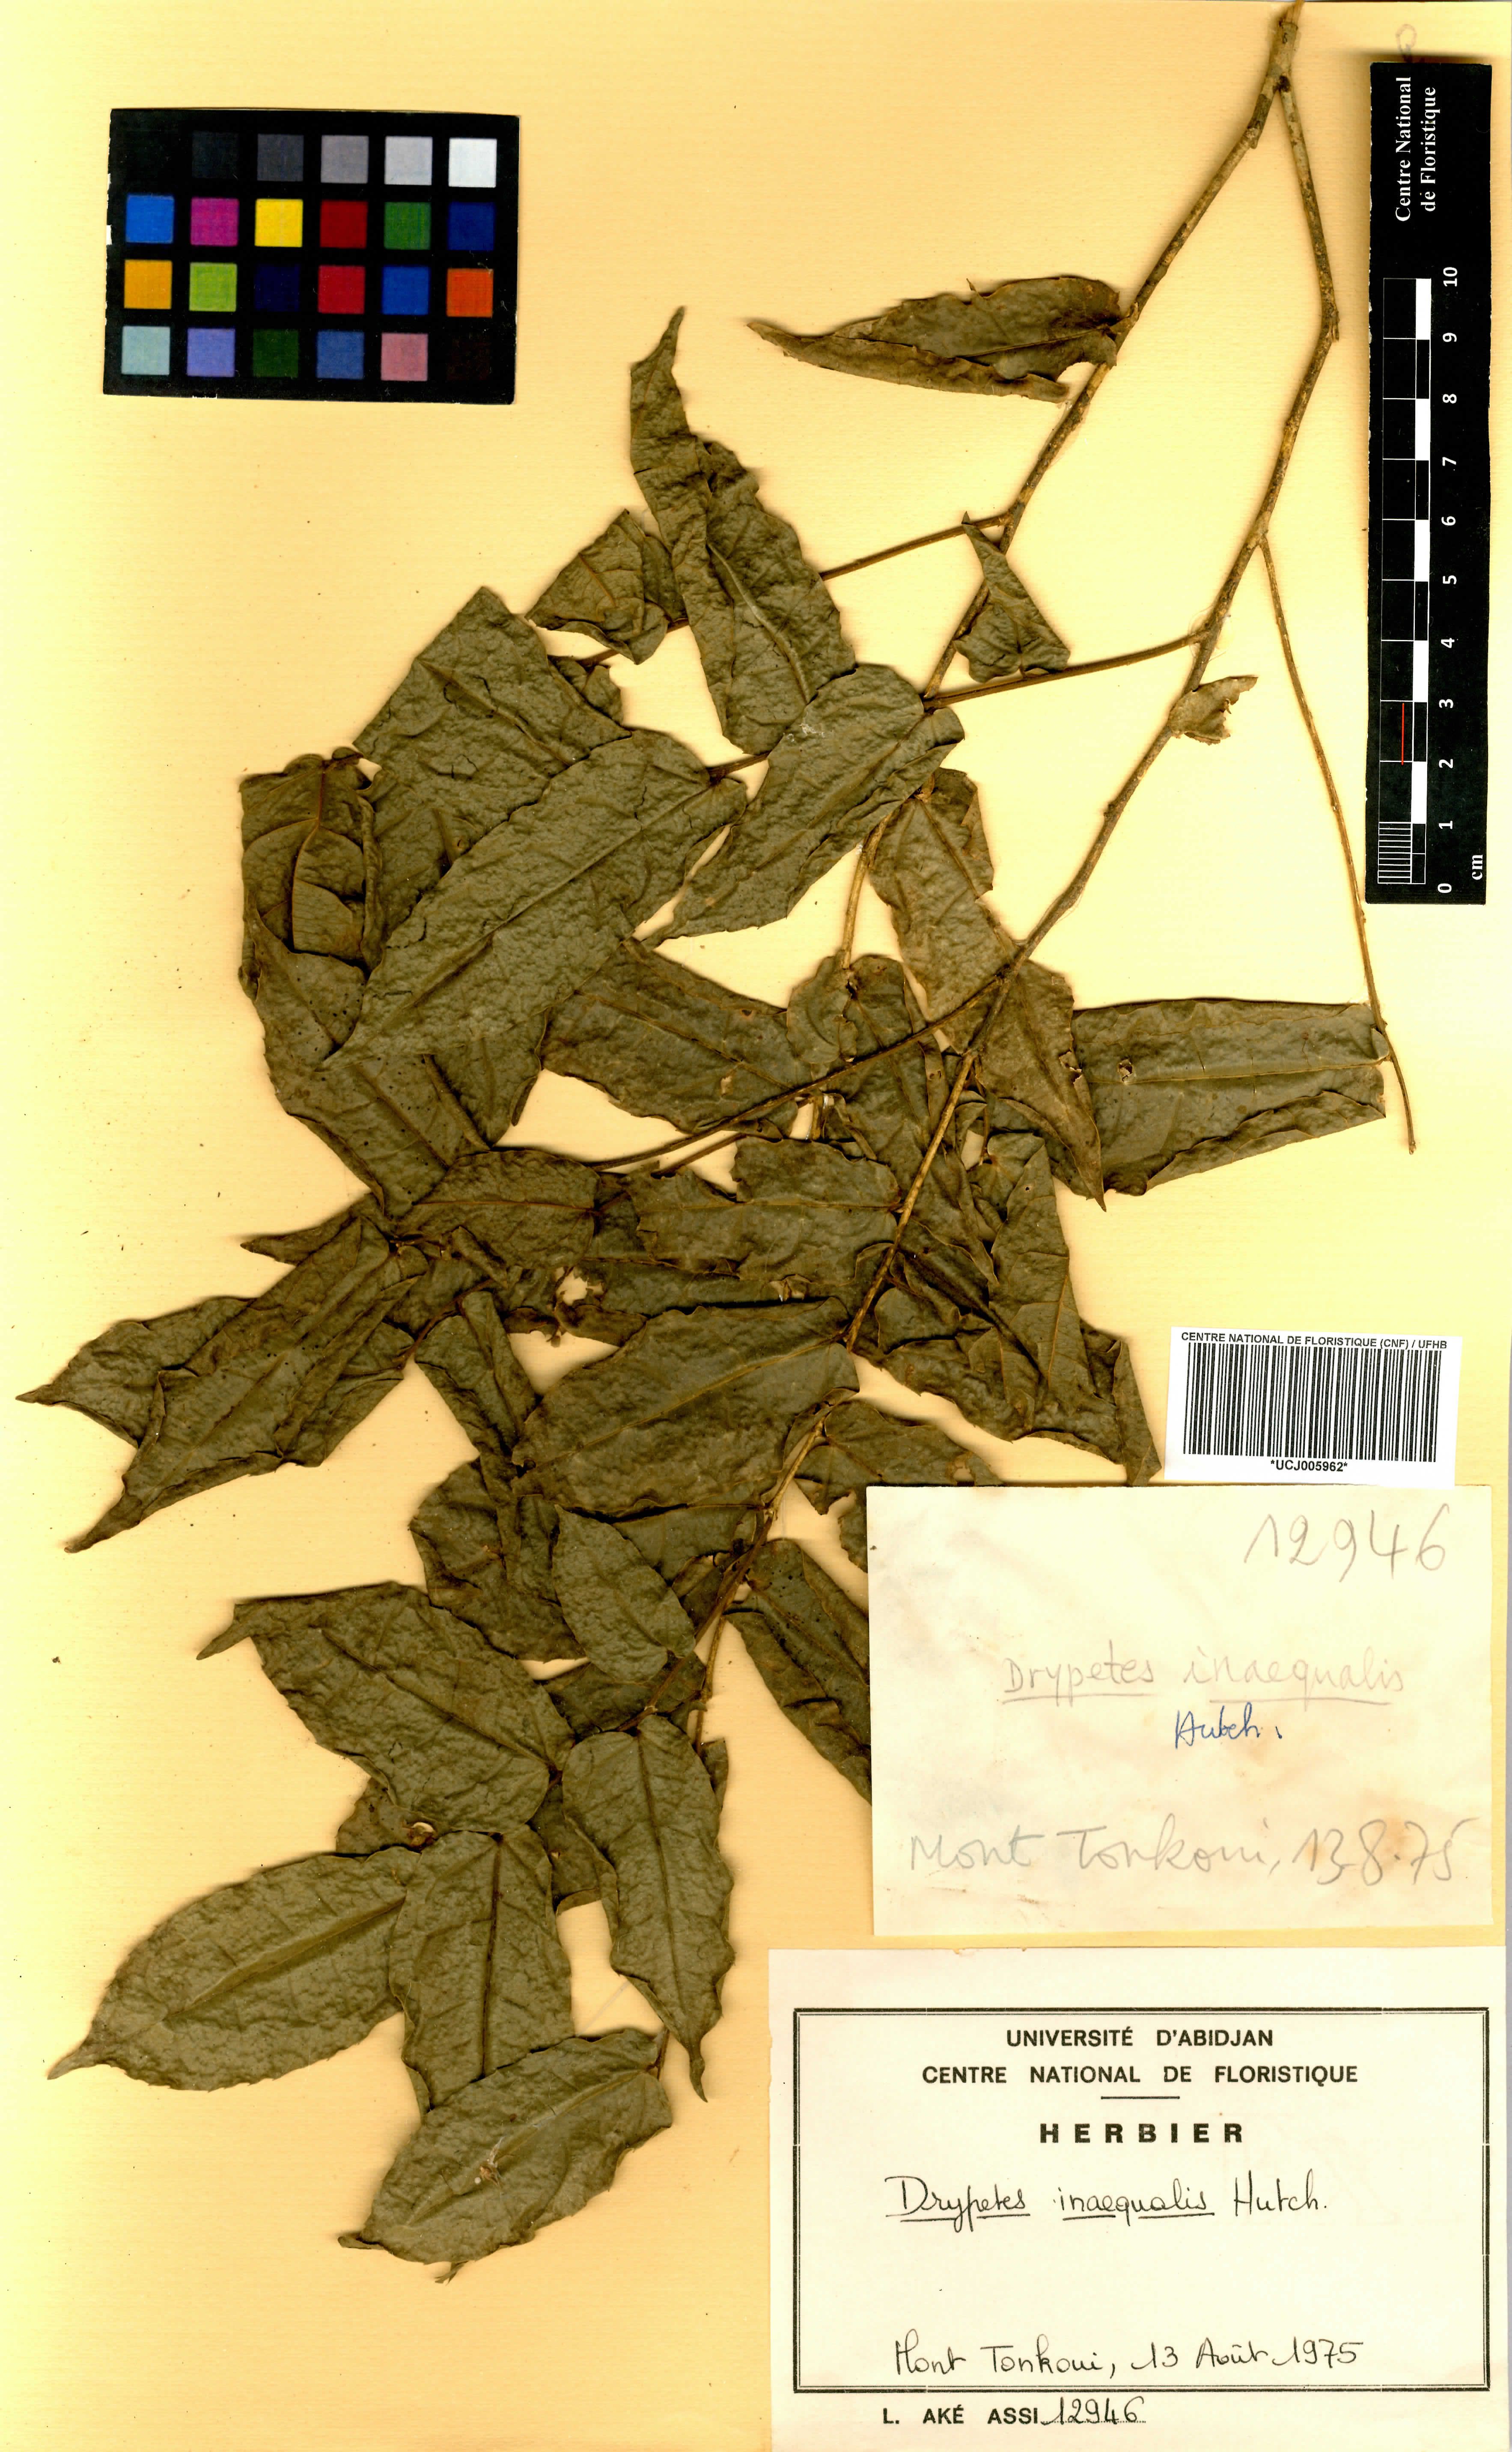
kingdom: Plantae
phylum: Tracheophyta
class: Magnoliopsida
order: Malpighiales
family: Putranjivaceae
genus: Drypetes
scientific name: Drypetes inaequalis
